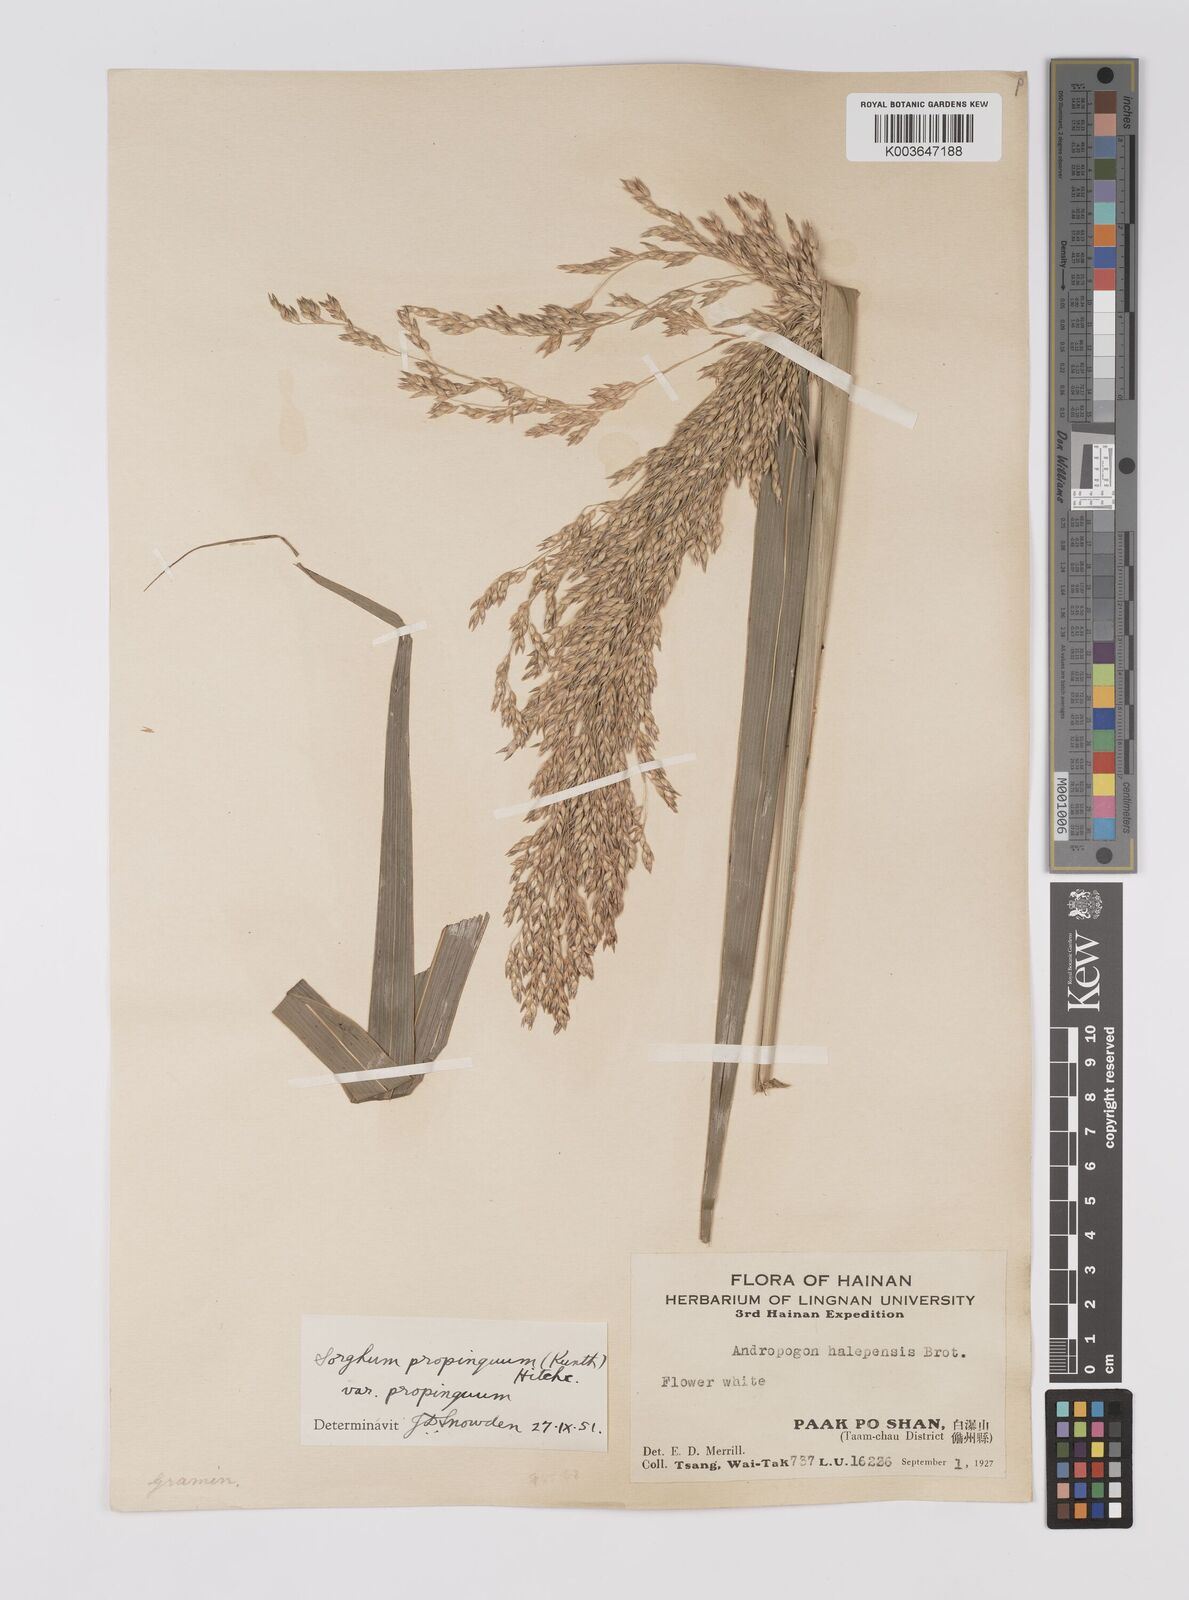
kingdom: Plantae
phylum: Tracheophyta
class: Liliopsida
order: Poales
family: Poaceae
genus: Sorghum
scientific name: Sorghum propinquum
